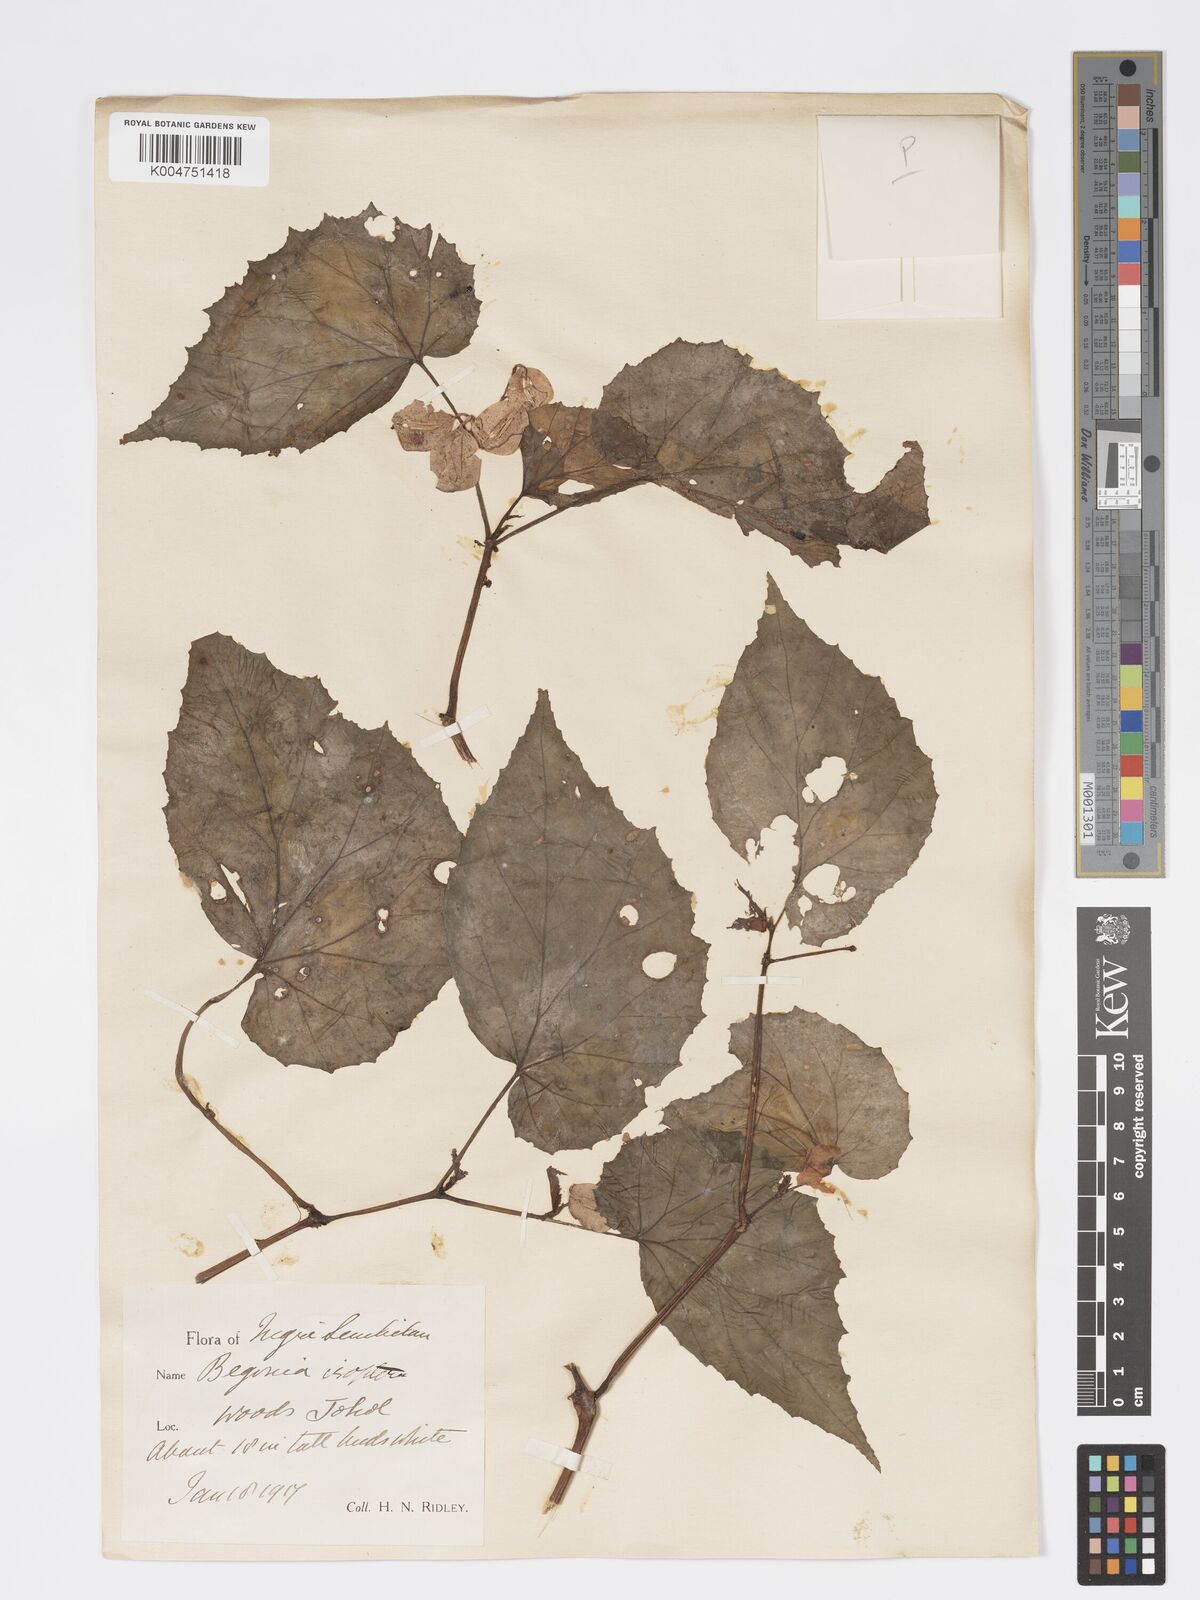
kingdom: Plantae
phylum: Tracheophyta
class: Magnoliopsida
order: Cucurbitales
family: Begoniaceae
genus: Begonia
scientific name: Begonia holttumii
